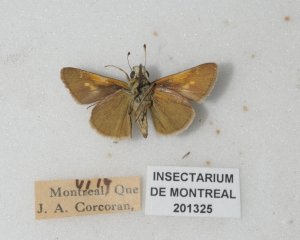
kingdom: Animalia
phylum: Arthropoda
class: Insecta
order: Lepidoptera
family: Hesperiidae
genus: Polites
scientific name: Polites themistocles
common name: Tawny-edged Skipper
